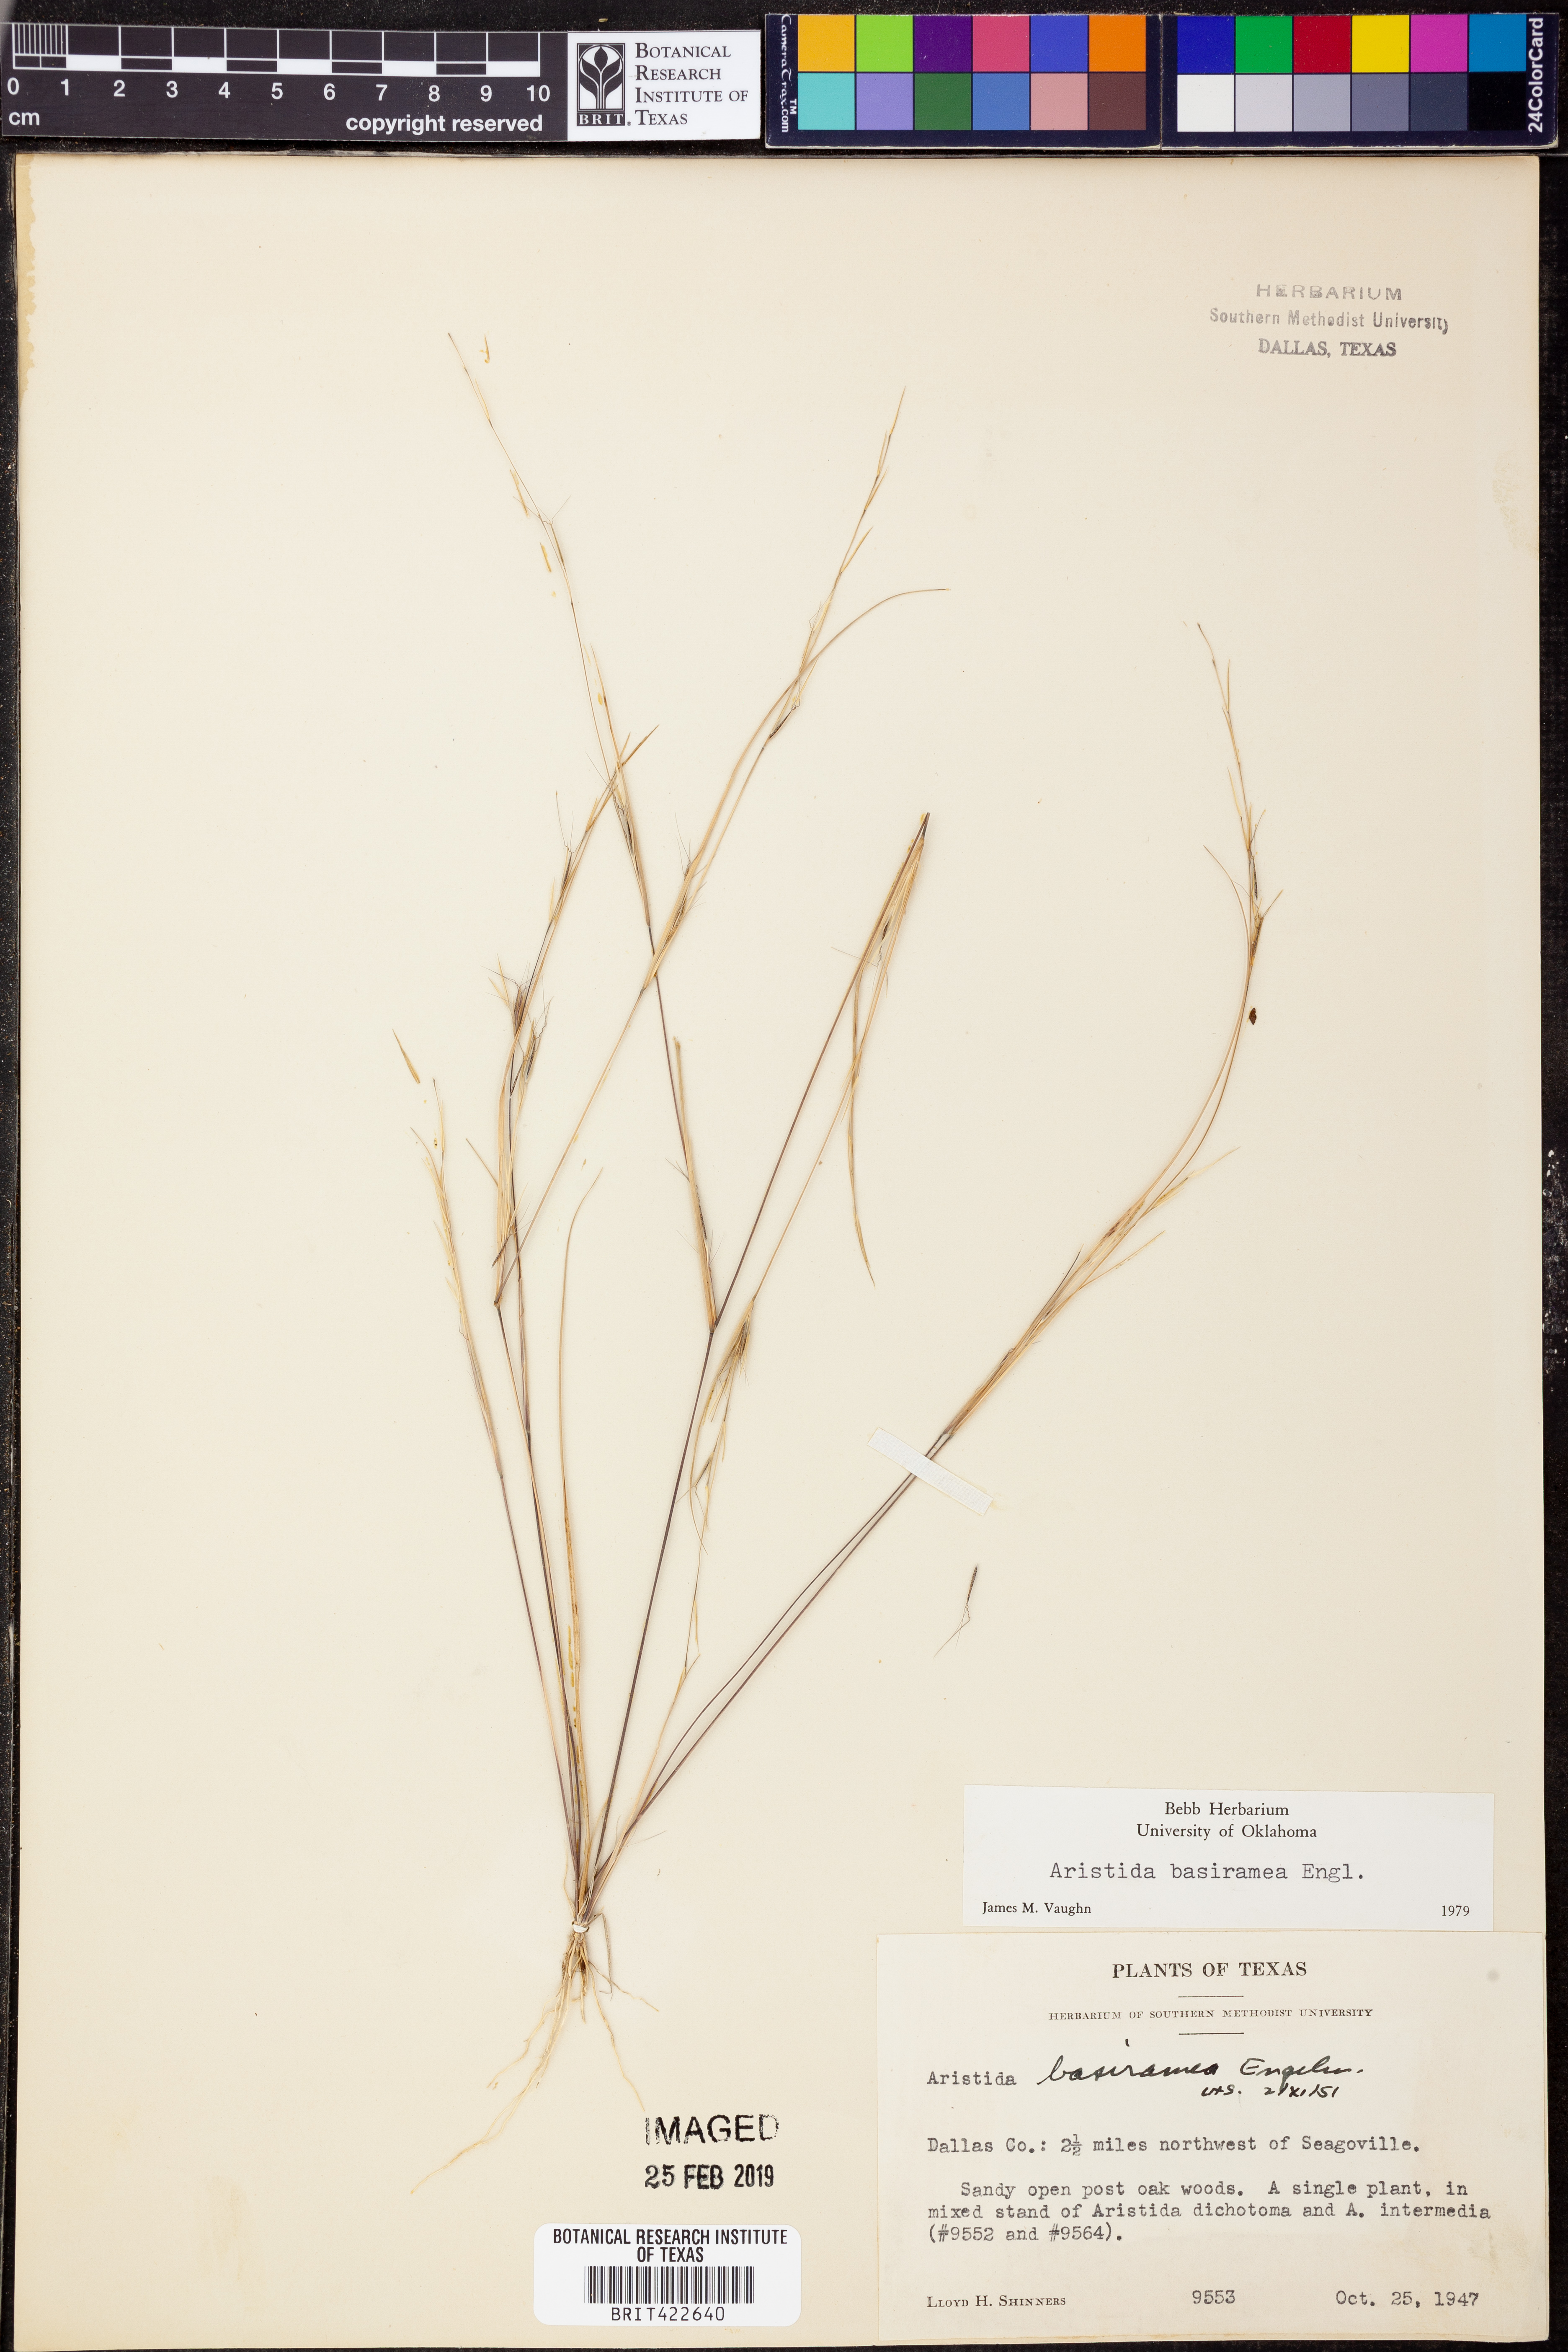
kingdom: Plantae
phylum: Tracheophyta
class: Liliopsida
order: Poales
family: Poaceae
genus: Aristida
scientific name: Aristida basiramea
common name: Forked three-awned grass
